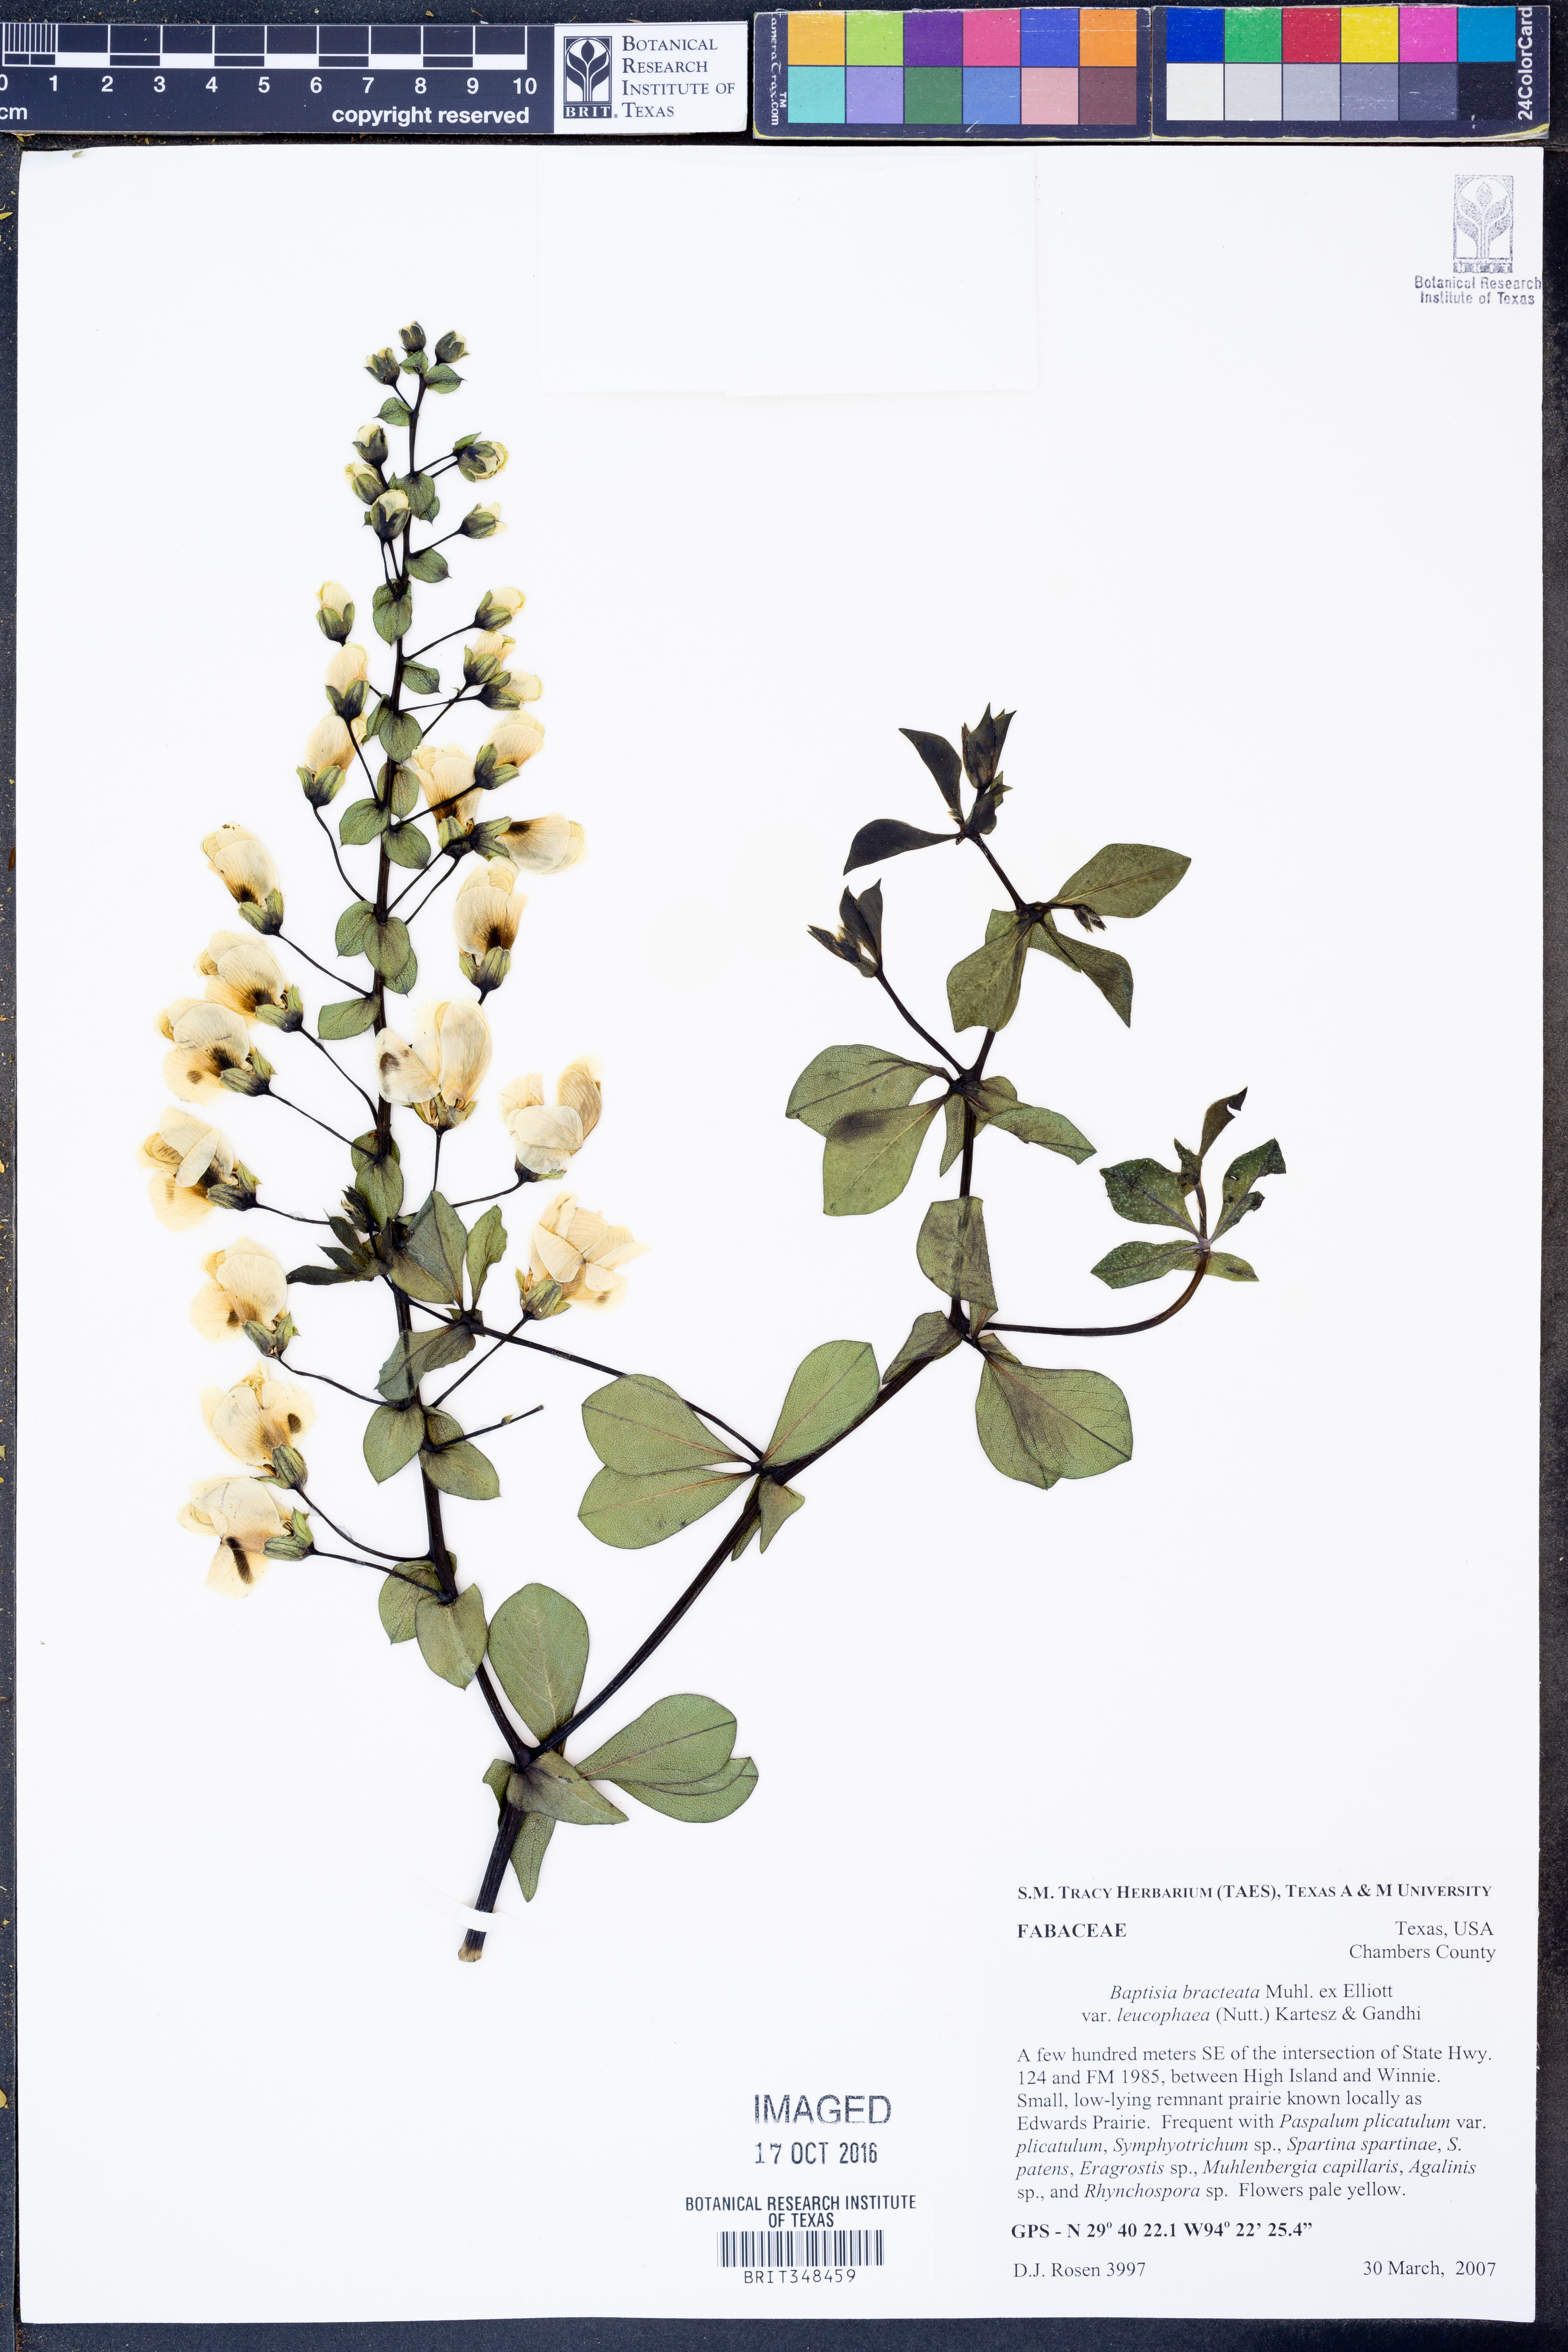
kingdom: Plantae
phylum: Tracheophyta
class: Magnoliopsida
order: Fabales
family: Fabaceae
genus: Baptisia
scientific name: Baptisia bracteata
